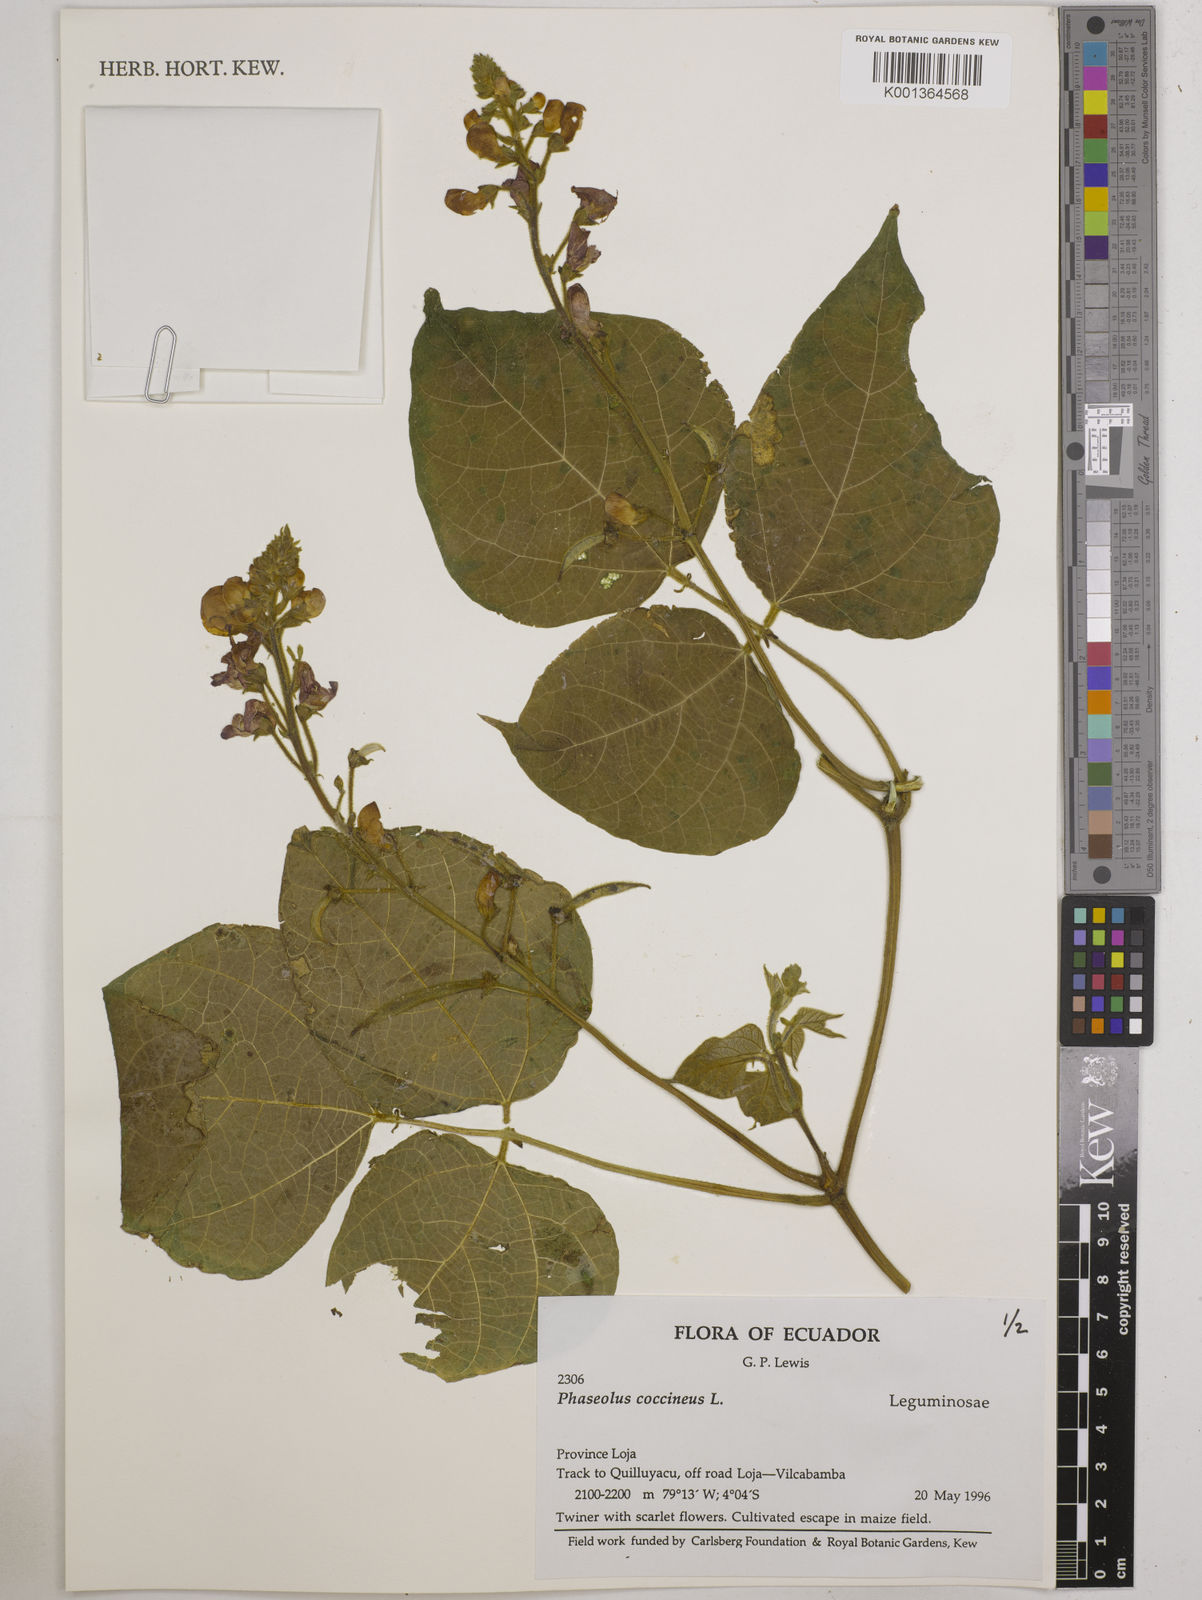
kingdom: Plantae
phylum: Tracheophyta
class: Magnoliopsida
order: Fabales
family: Fabaceae
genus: Phaseolus
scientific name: Phaseolus coccineus
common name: Runner bean
